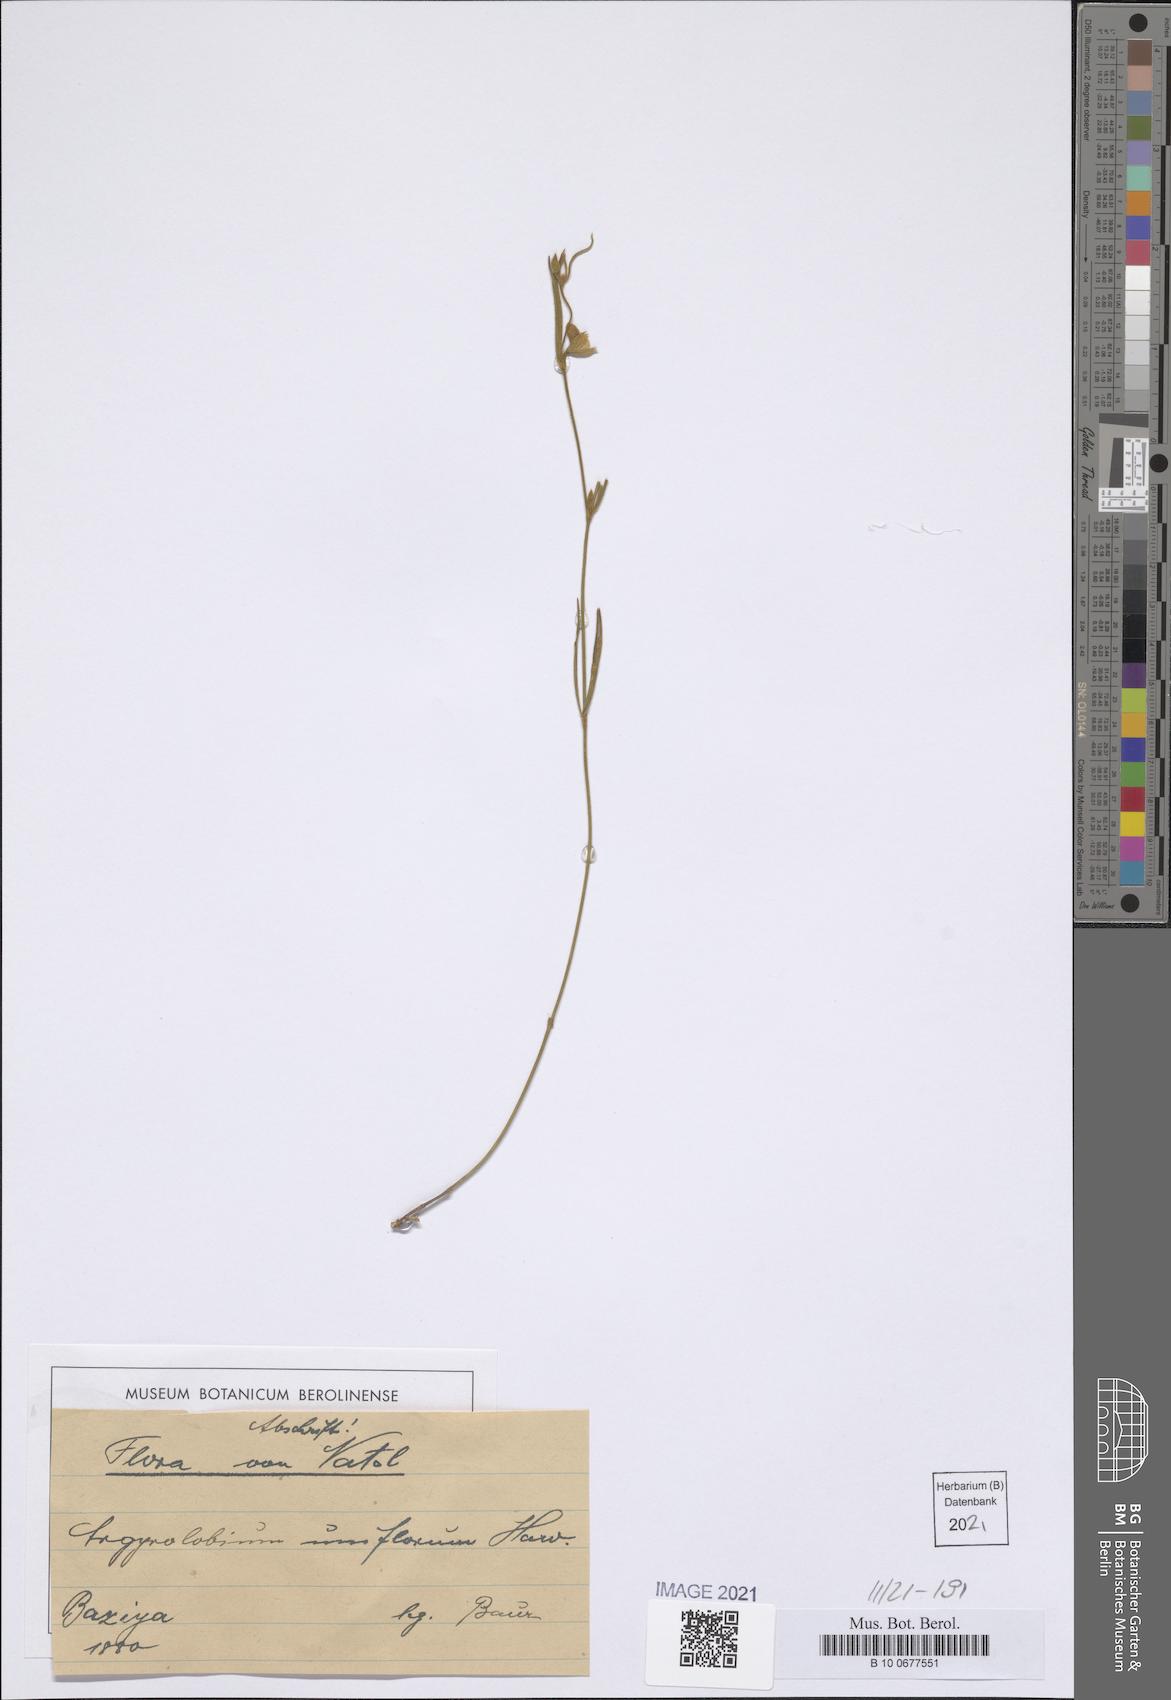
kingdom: Plantae
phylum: Tracheophyta
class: Magnoliopsida
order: Fabales
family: Fabaceae
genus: Argyrolobium
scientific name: Argyrolobium uniflorum
